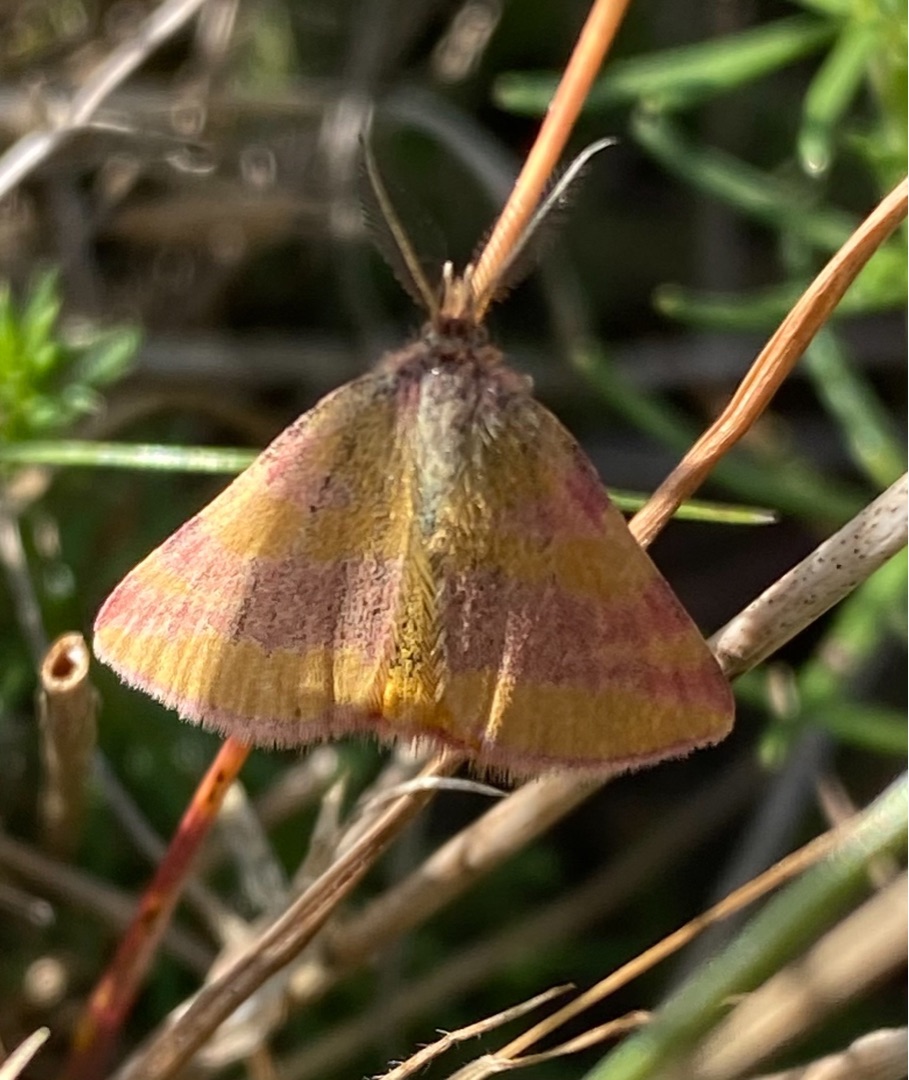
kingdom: Animalia
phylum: Arthropoda
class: Insecta
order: Lepidoptera
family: Geometridae
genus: Lythria
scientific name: Lythria cruentaria
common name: Purpurmåler
